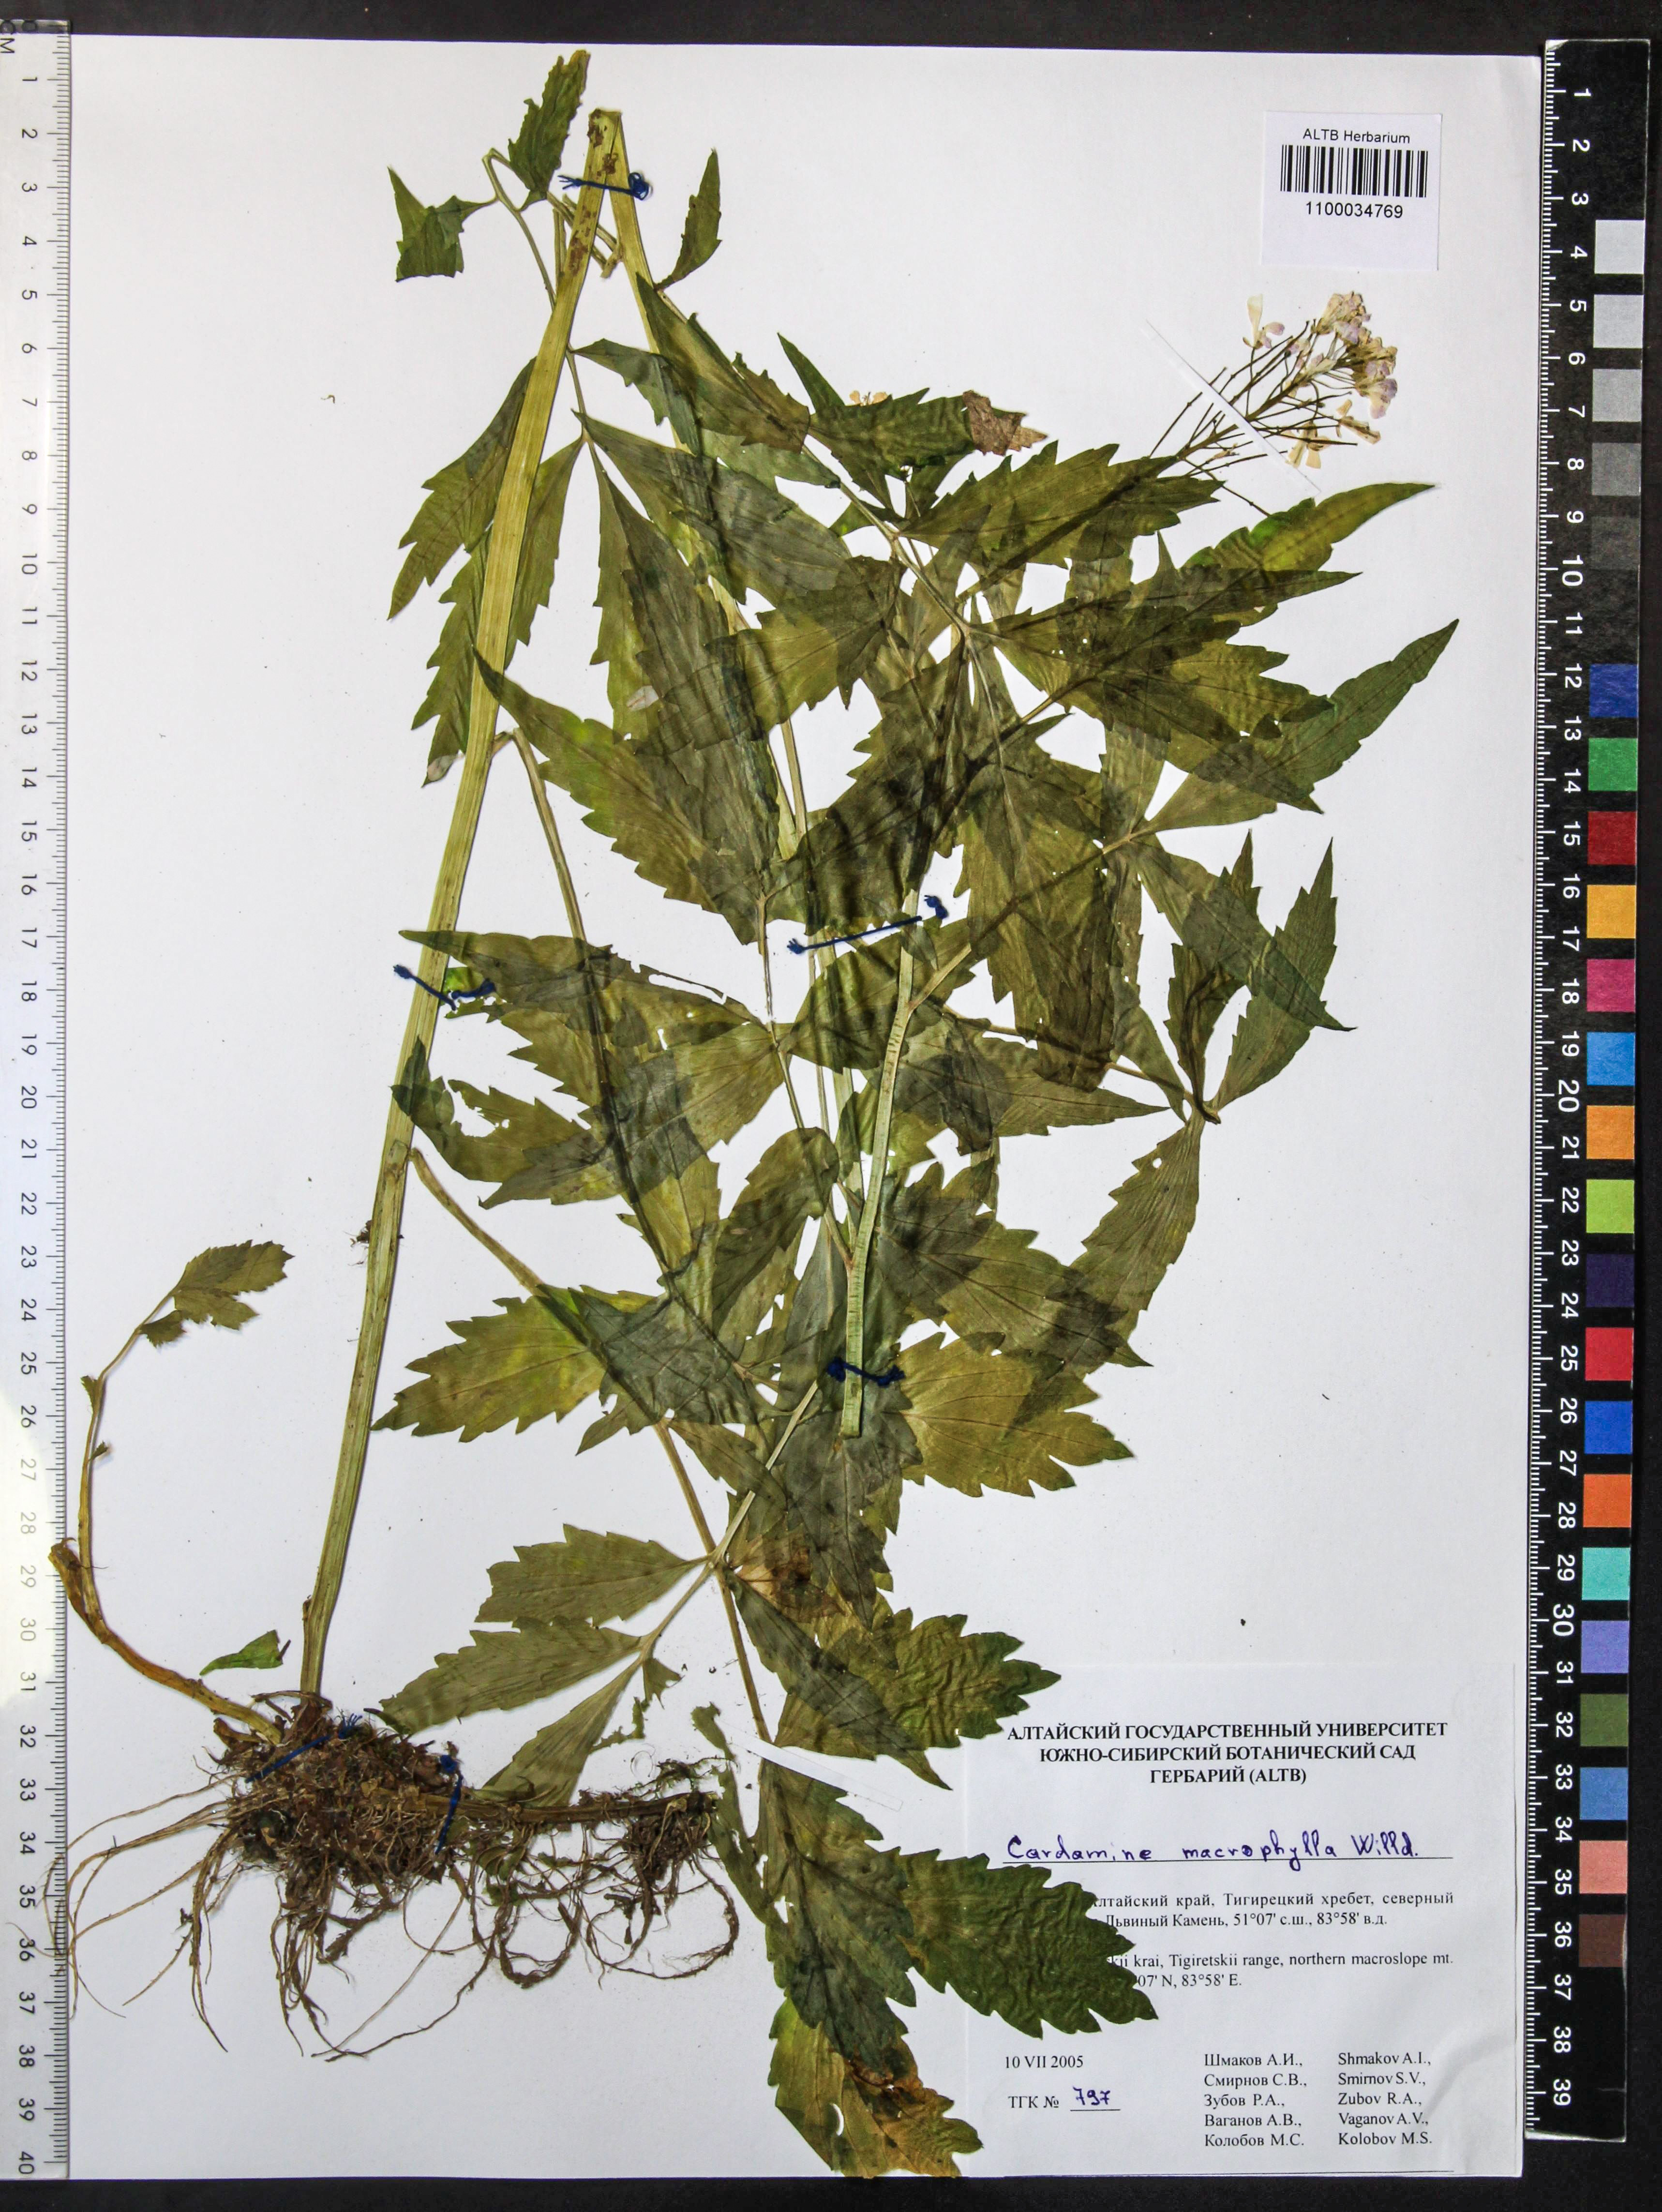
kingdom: Plantae
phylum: Tracheophyta
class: Magnoliopsida
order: Brassicales
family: Brassicaceae
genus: Cardamine
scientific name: Cardamine macrophylla
